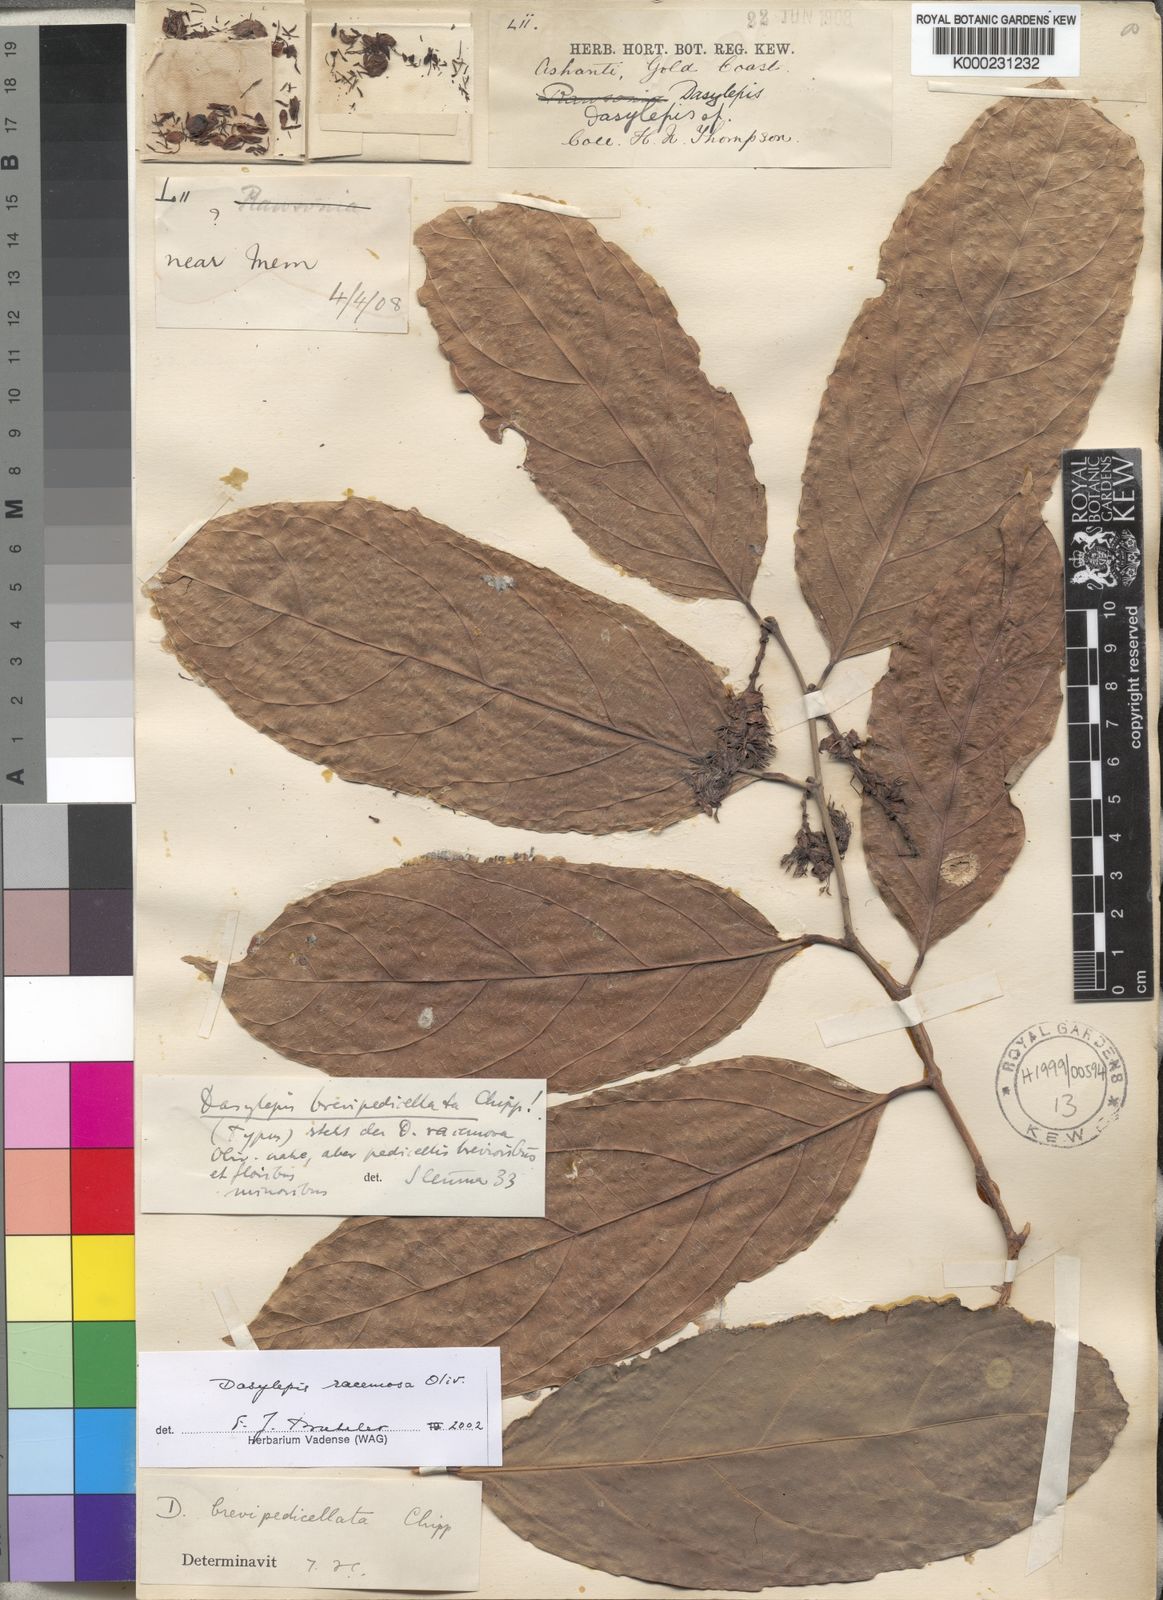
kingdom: Plantae
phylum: Tracheophyta
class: Magnoliopsida
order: Malpighiales
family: Achariaceae
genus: Dasylepis
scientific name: Dasylepis racemosa
